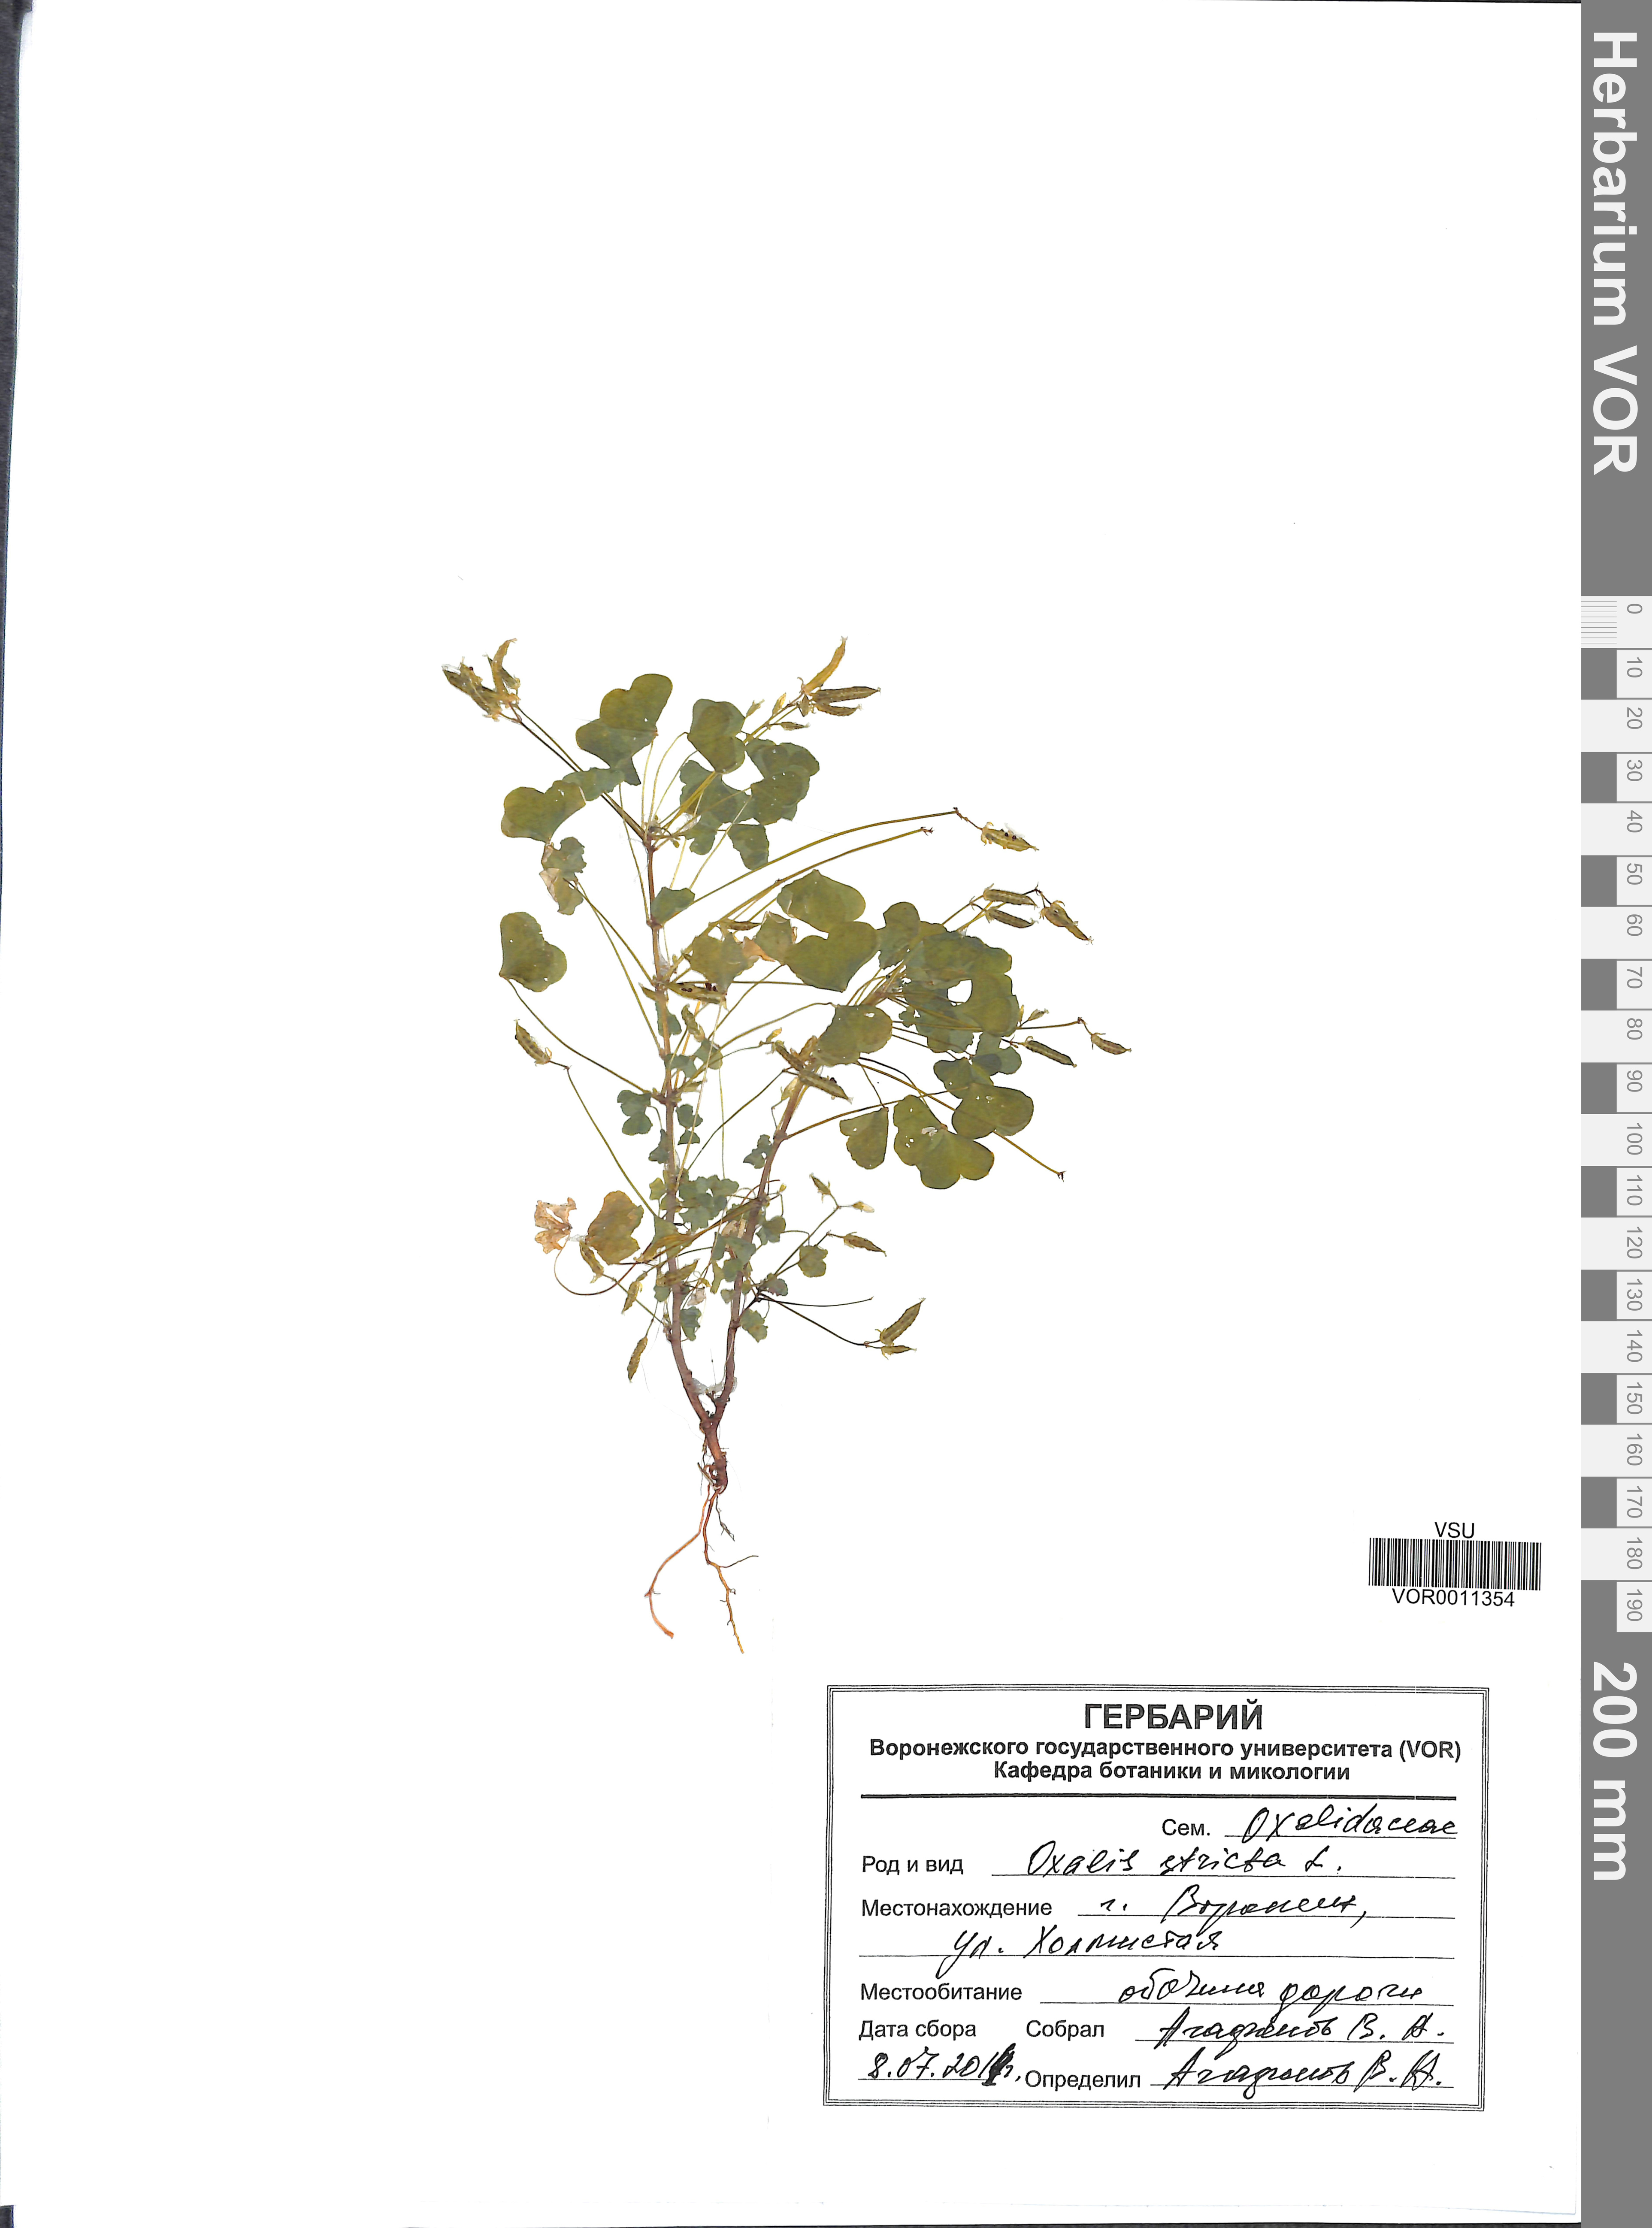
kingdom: Plantae
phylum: Tracheophyta
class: Magnoliopsida
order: Oxalidales
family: Oxalidaceae
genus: Oxalis
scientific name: Oxalis stricta
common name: Upright yellow-sorrel
